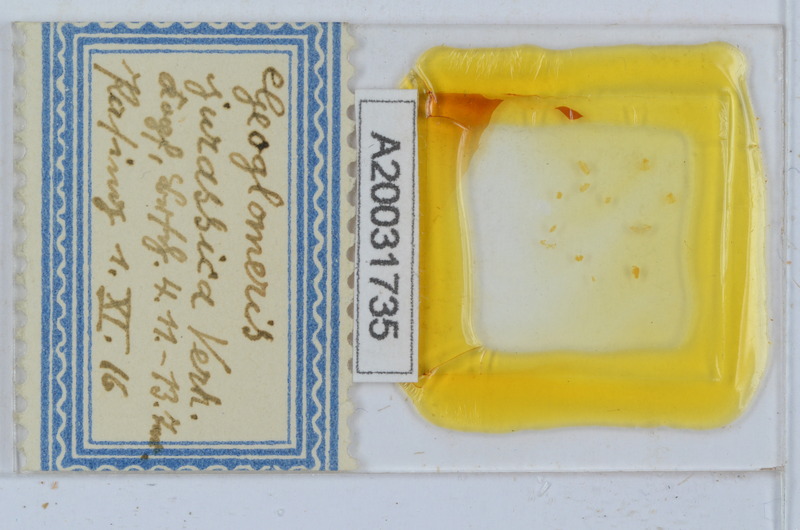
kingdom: Animalia
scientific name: Animalia
